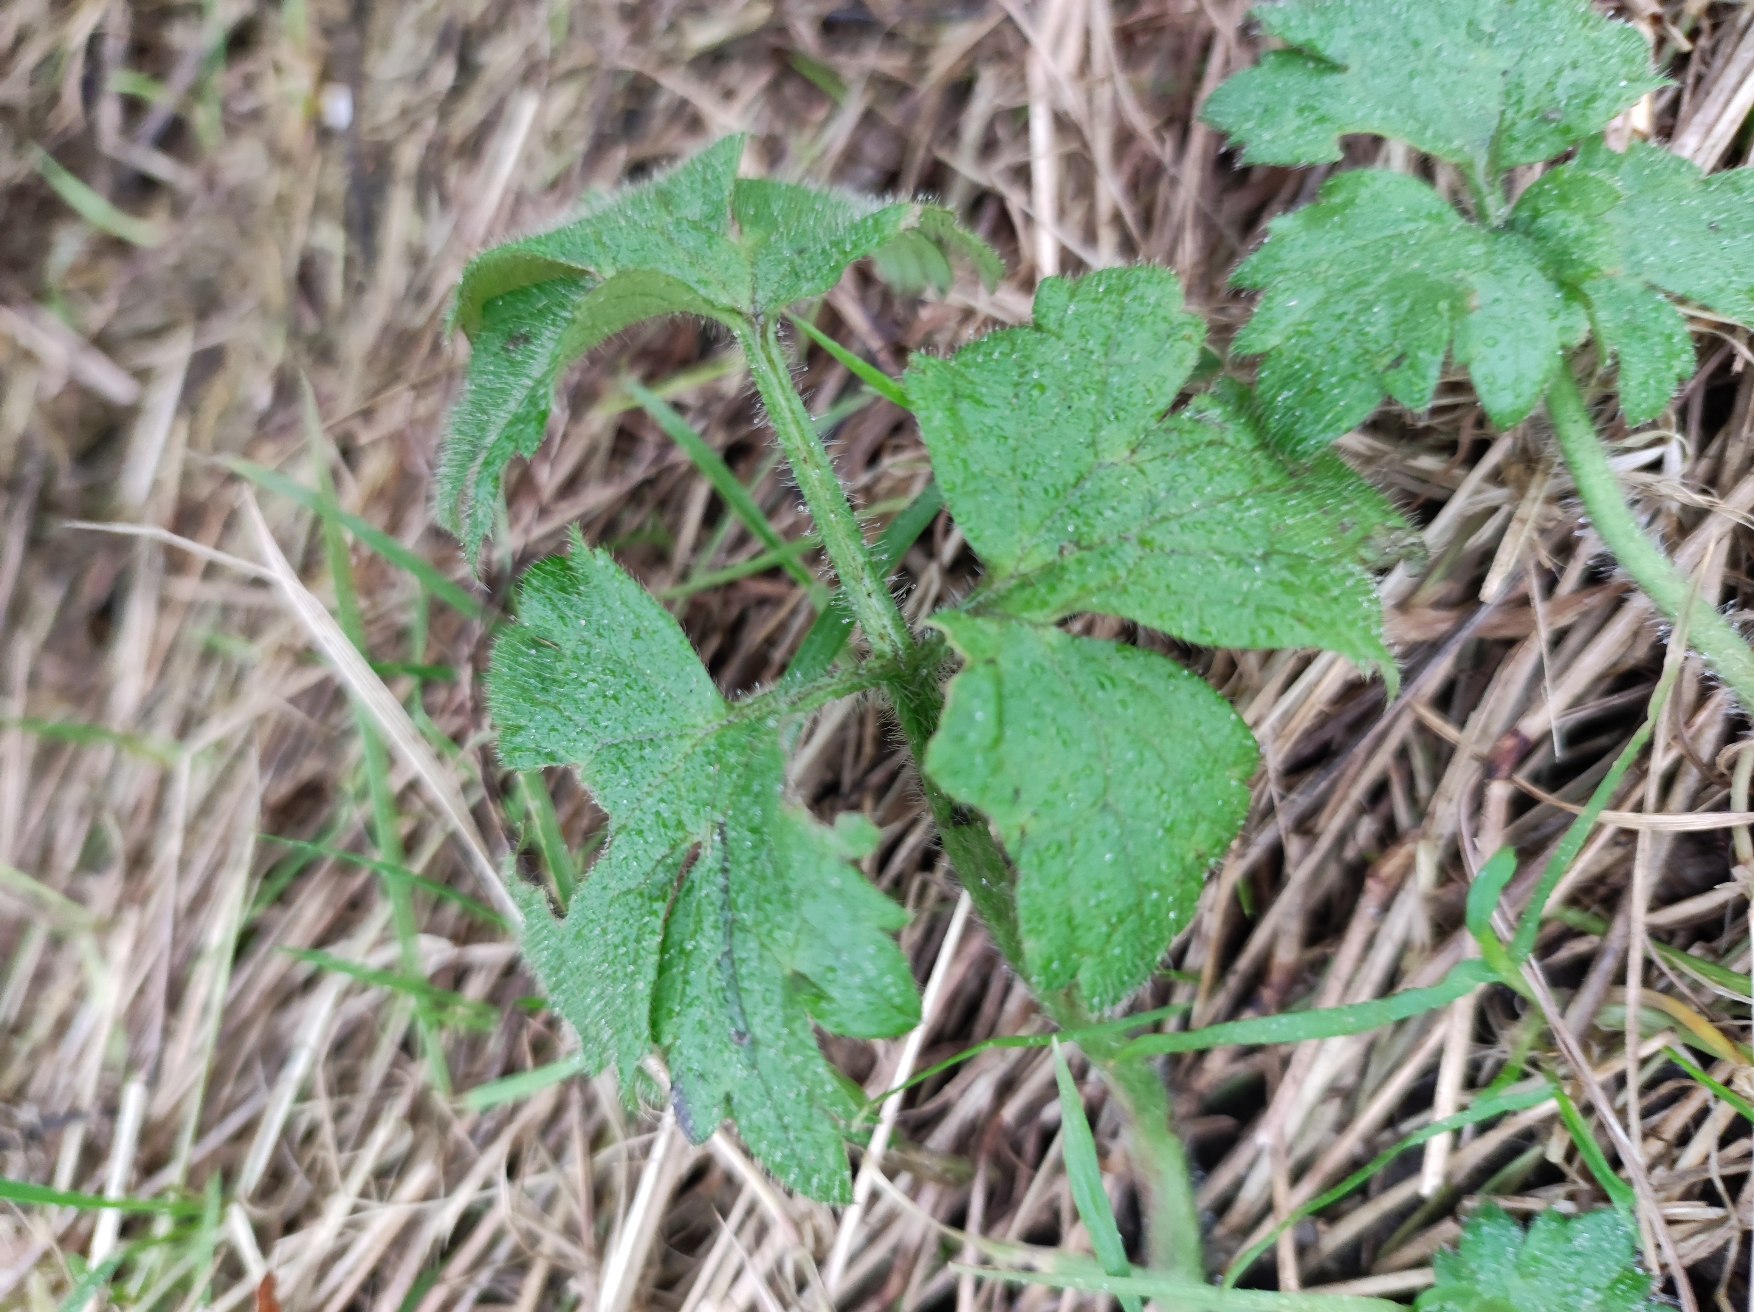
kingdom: Plantae
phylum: Tracheophyta
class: Magnoliopsida
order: Ranunculales
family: Ranunculaceae
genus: Ranunculus
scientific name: Ranunculus repens
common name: Lav ranunkel
